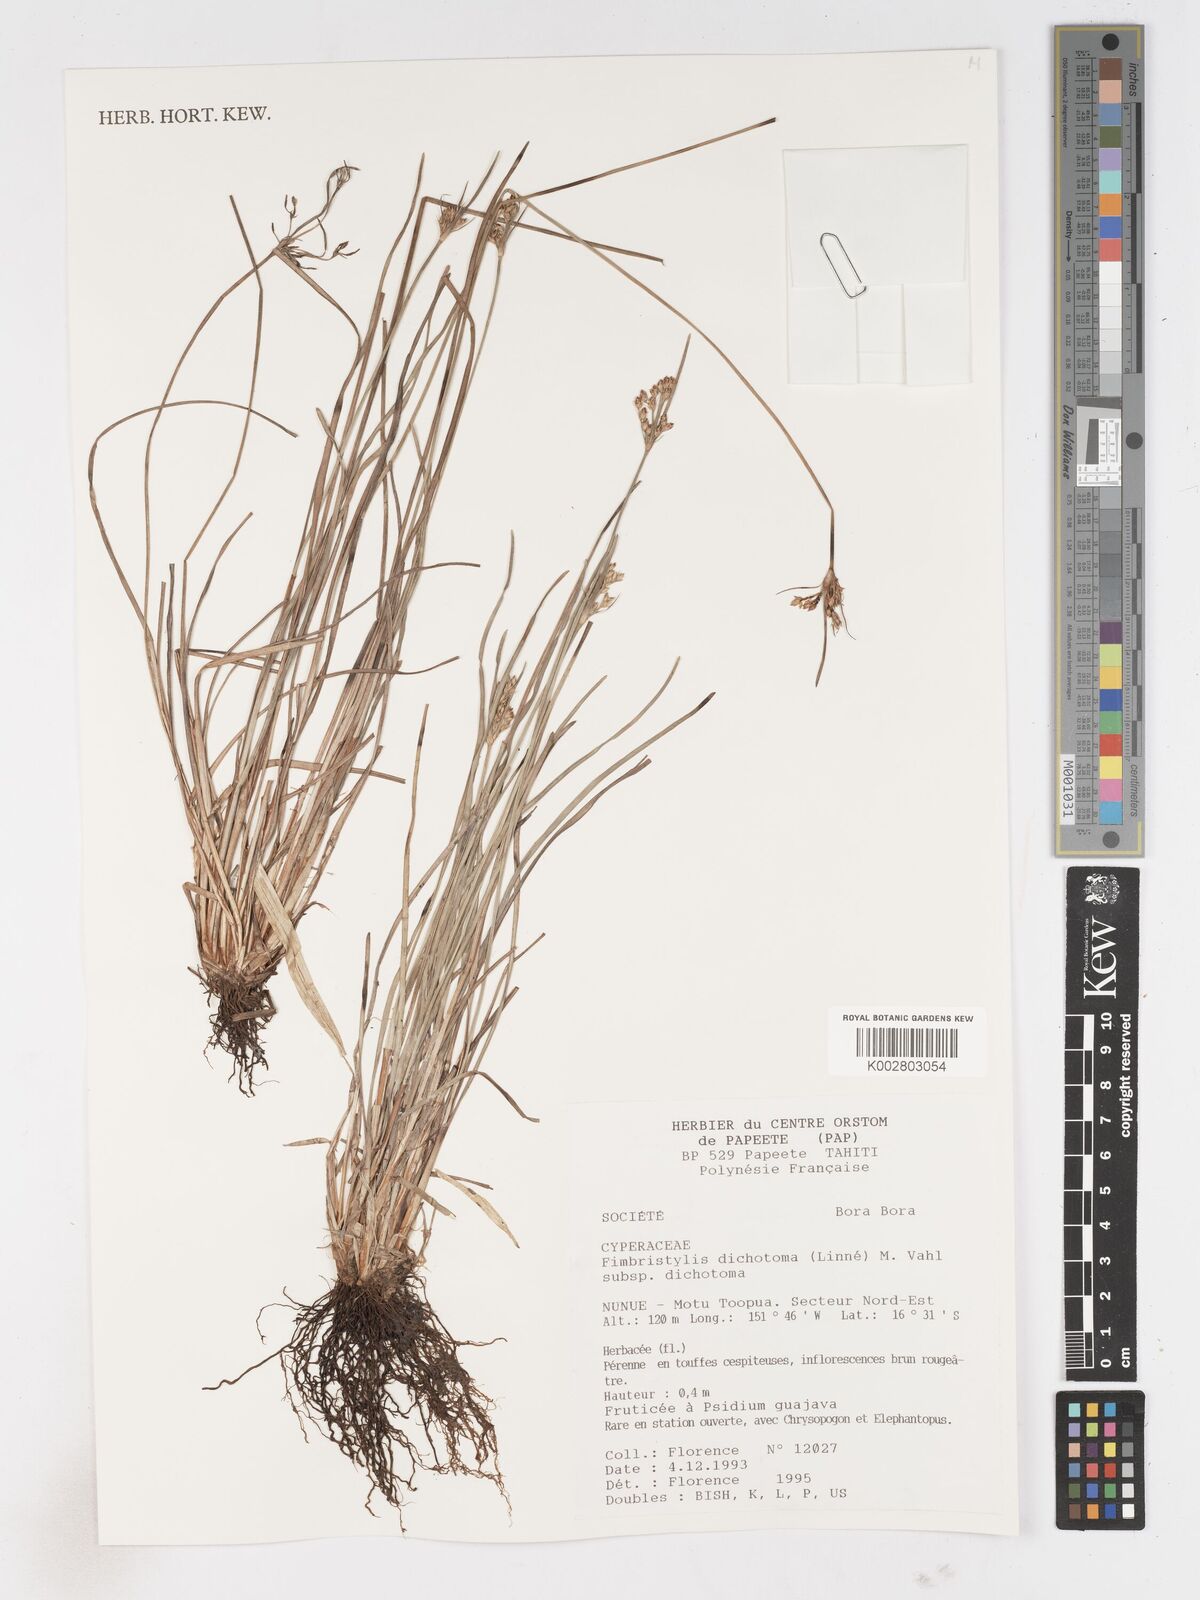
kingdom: Plantae
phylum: Tracheophyta
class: Liliopsida
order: Poales
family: Cyperaceae
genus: Fimbristylis
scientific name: Fimbristylis dichotoma
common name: Forked fimbry
